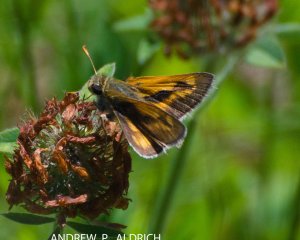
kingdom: Animalia
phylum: Arthropoda
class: Insecta
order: Lepidoptera
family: Hesperiidae
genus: Polites
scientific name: Polites
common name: Long Dash Skipper
